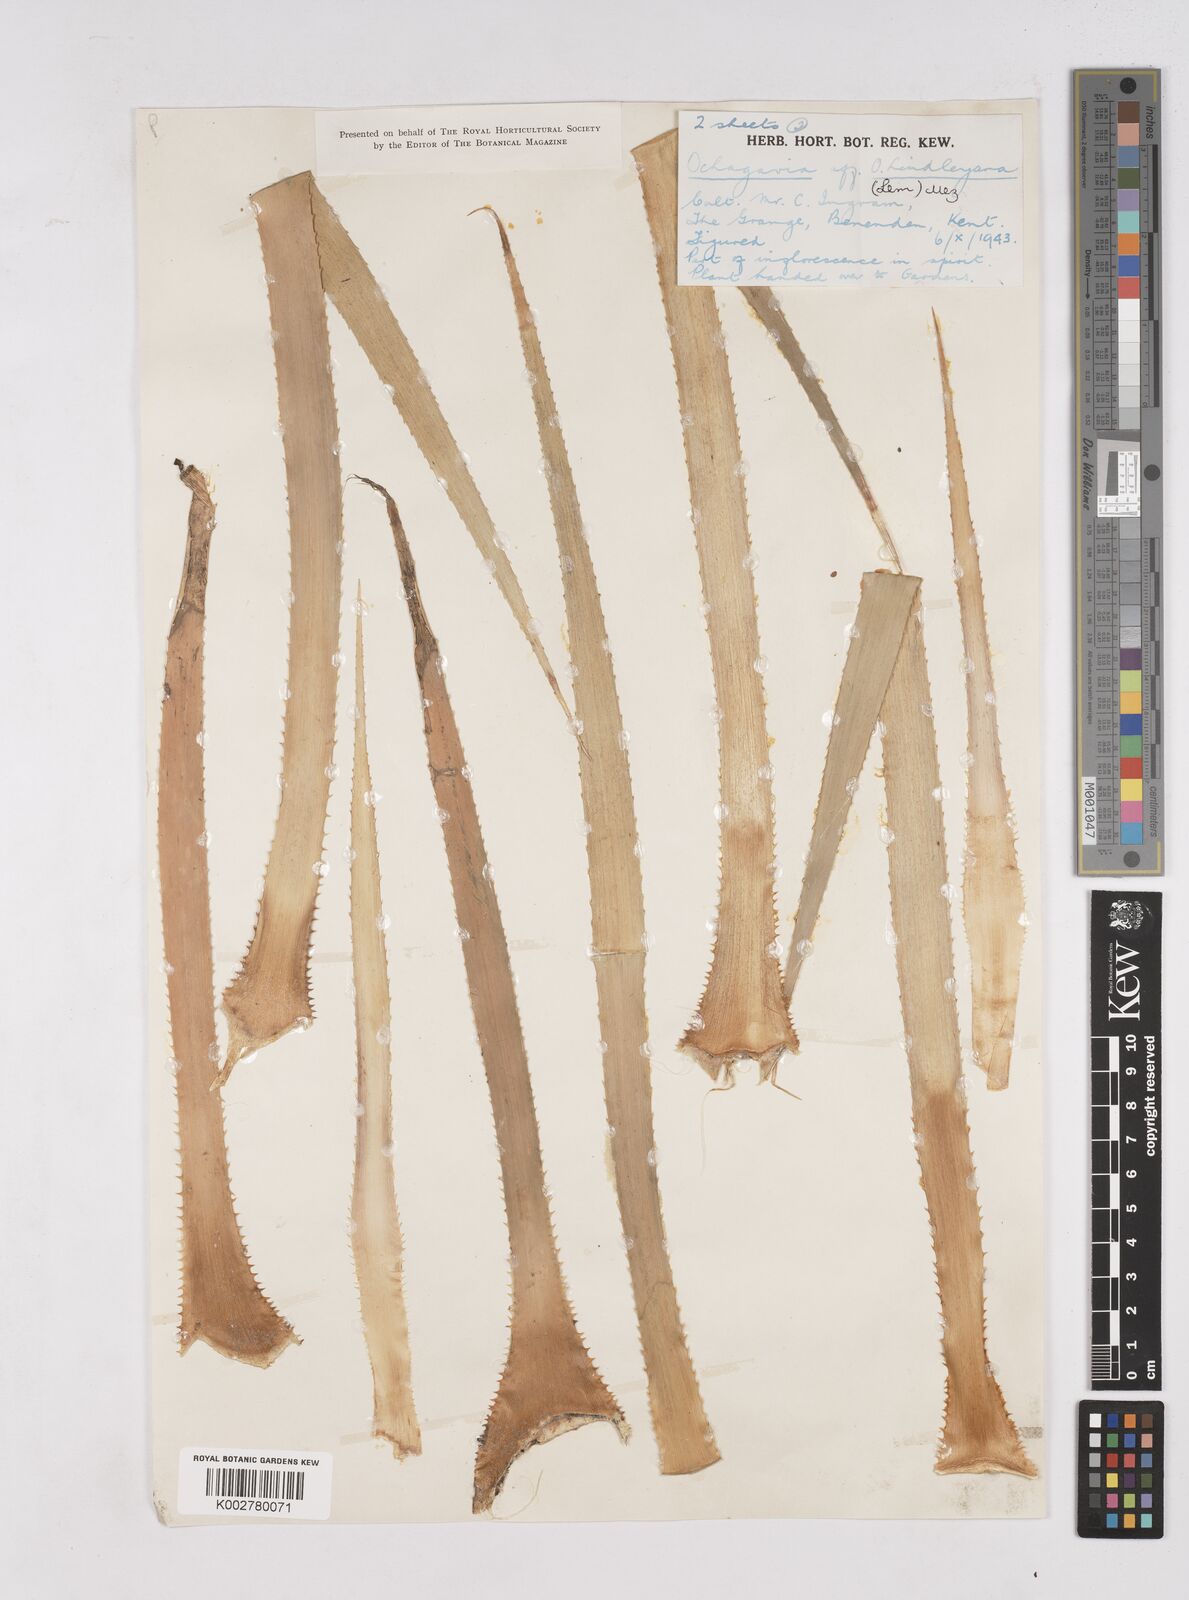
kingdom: Plantae
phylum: Tracheophyta
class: Liliopsida
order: Poales
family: Bromeliaceae
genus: Ochagavia
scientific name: Ochagavia carnea
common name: Tresco rhodostachys
